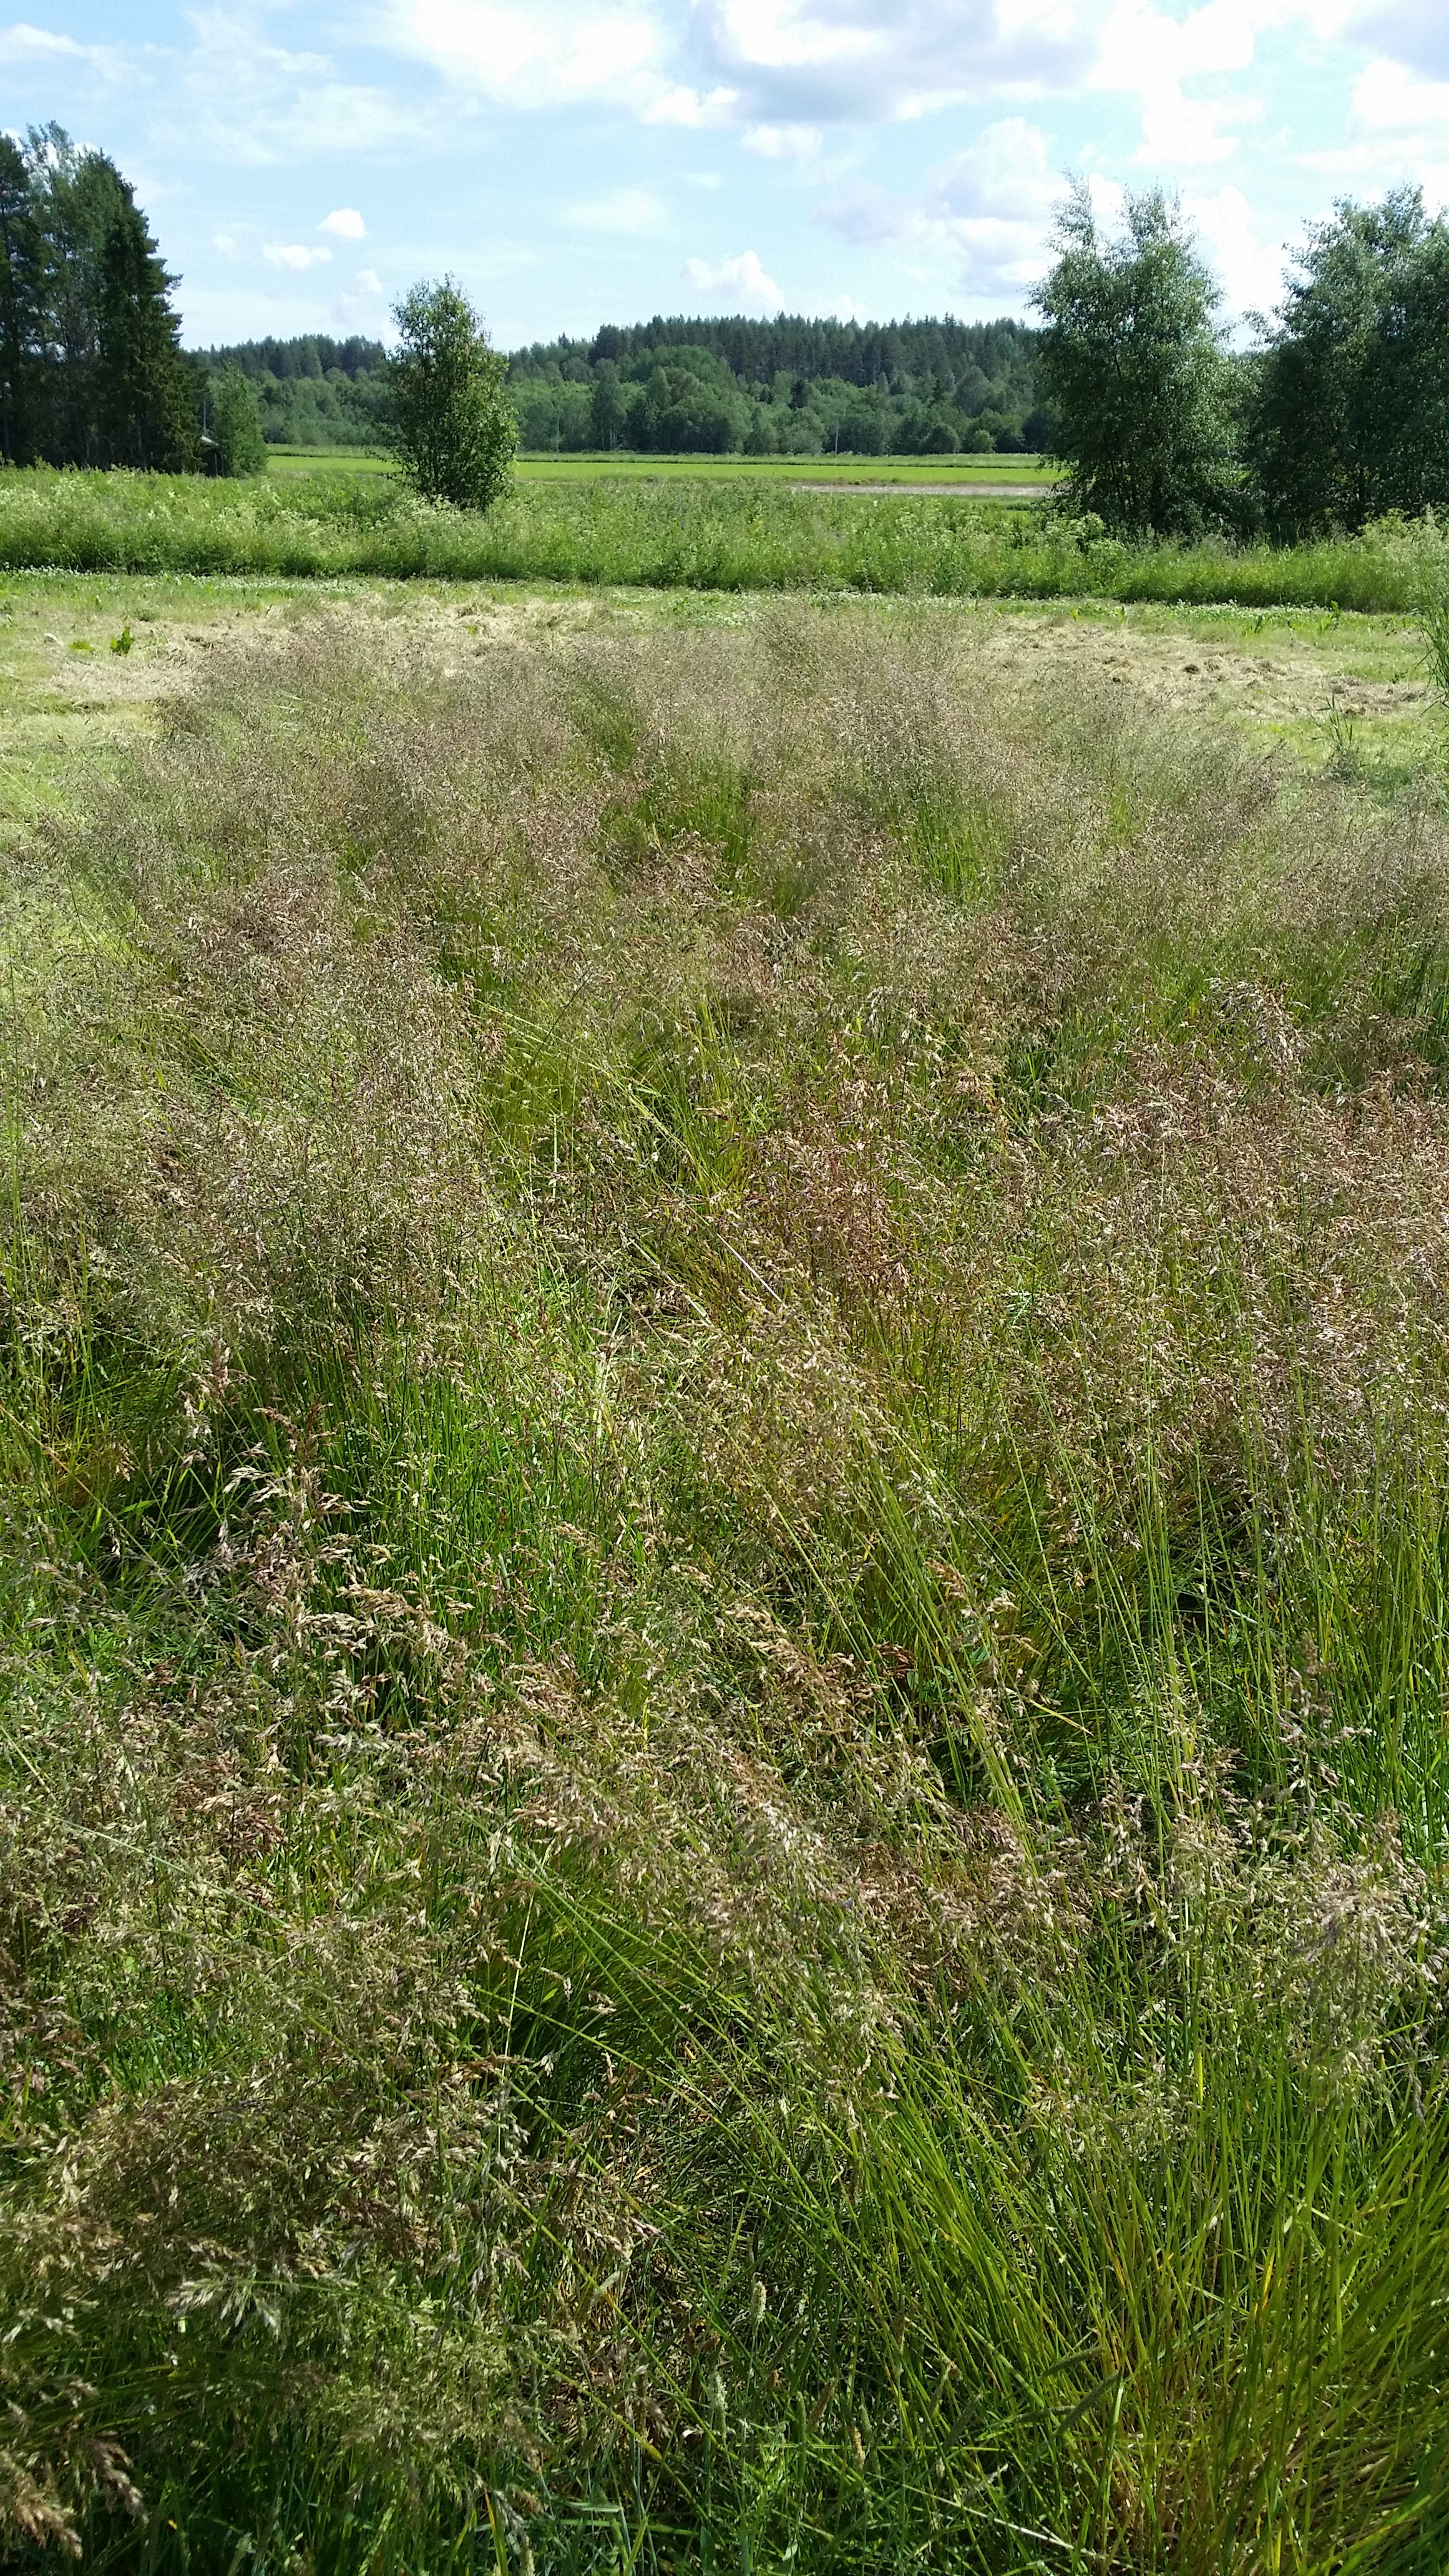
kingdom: Plantae
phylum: Tracheophyta
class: Liliopsida
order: Poales
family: Poaceae
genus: Poa
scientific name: Poa pratensis
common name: Kentucky bluegrass
